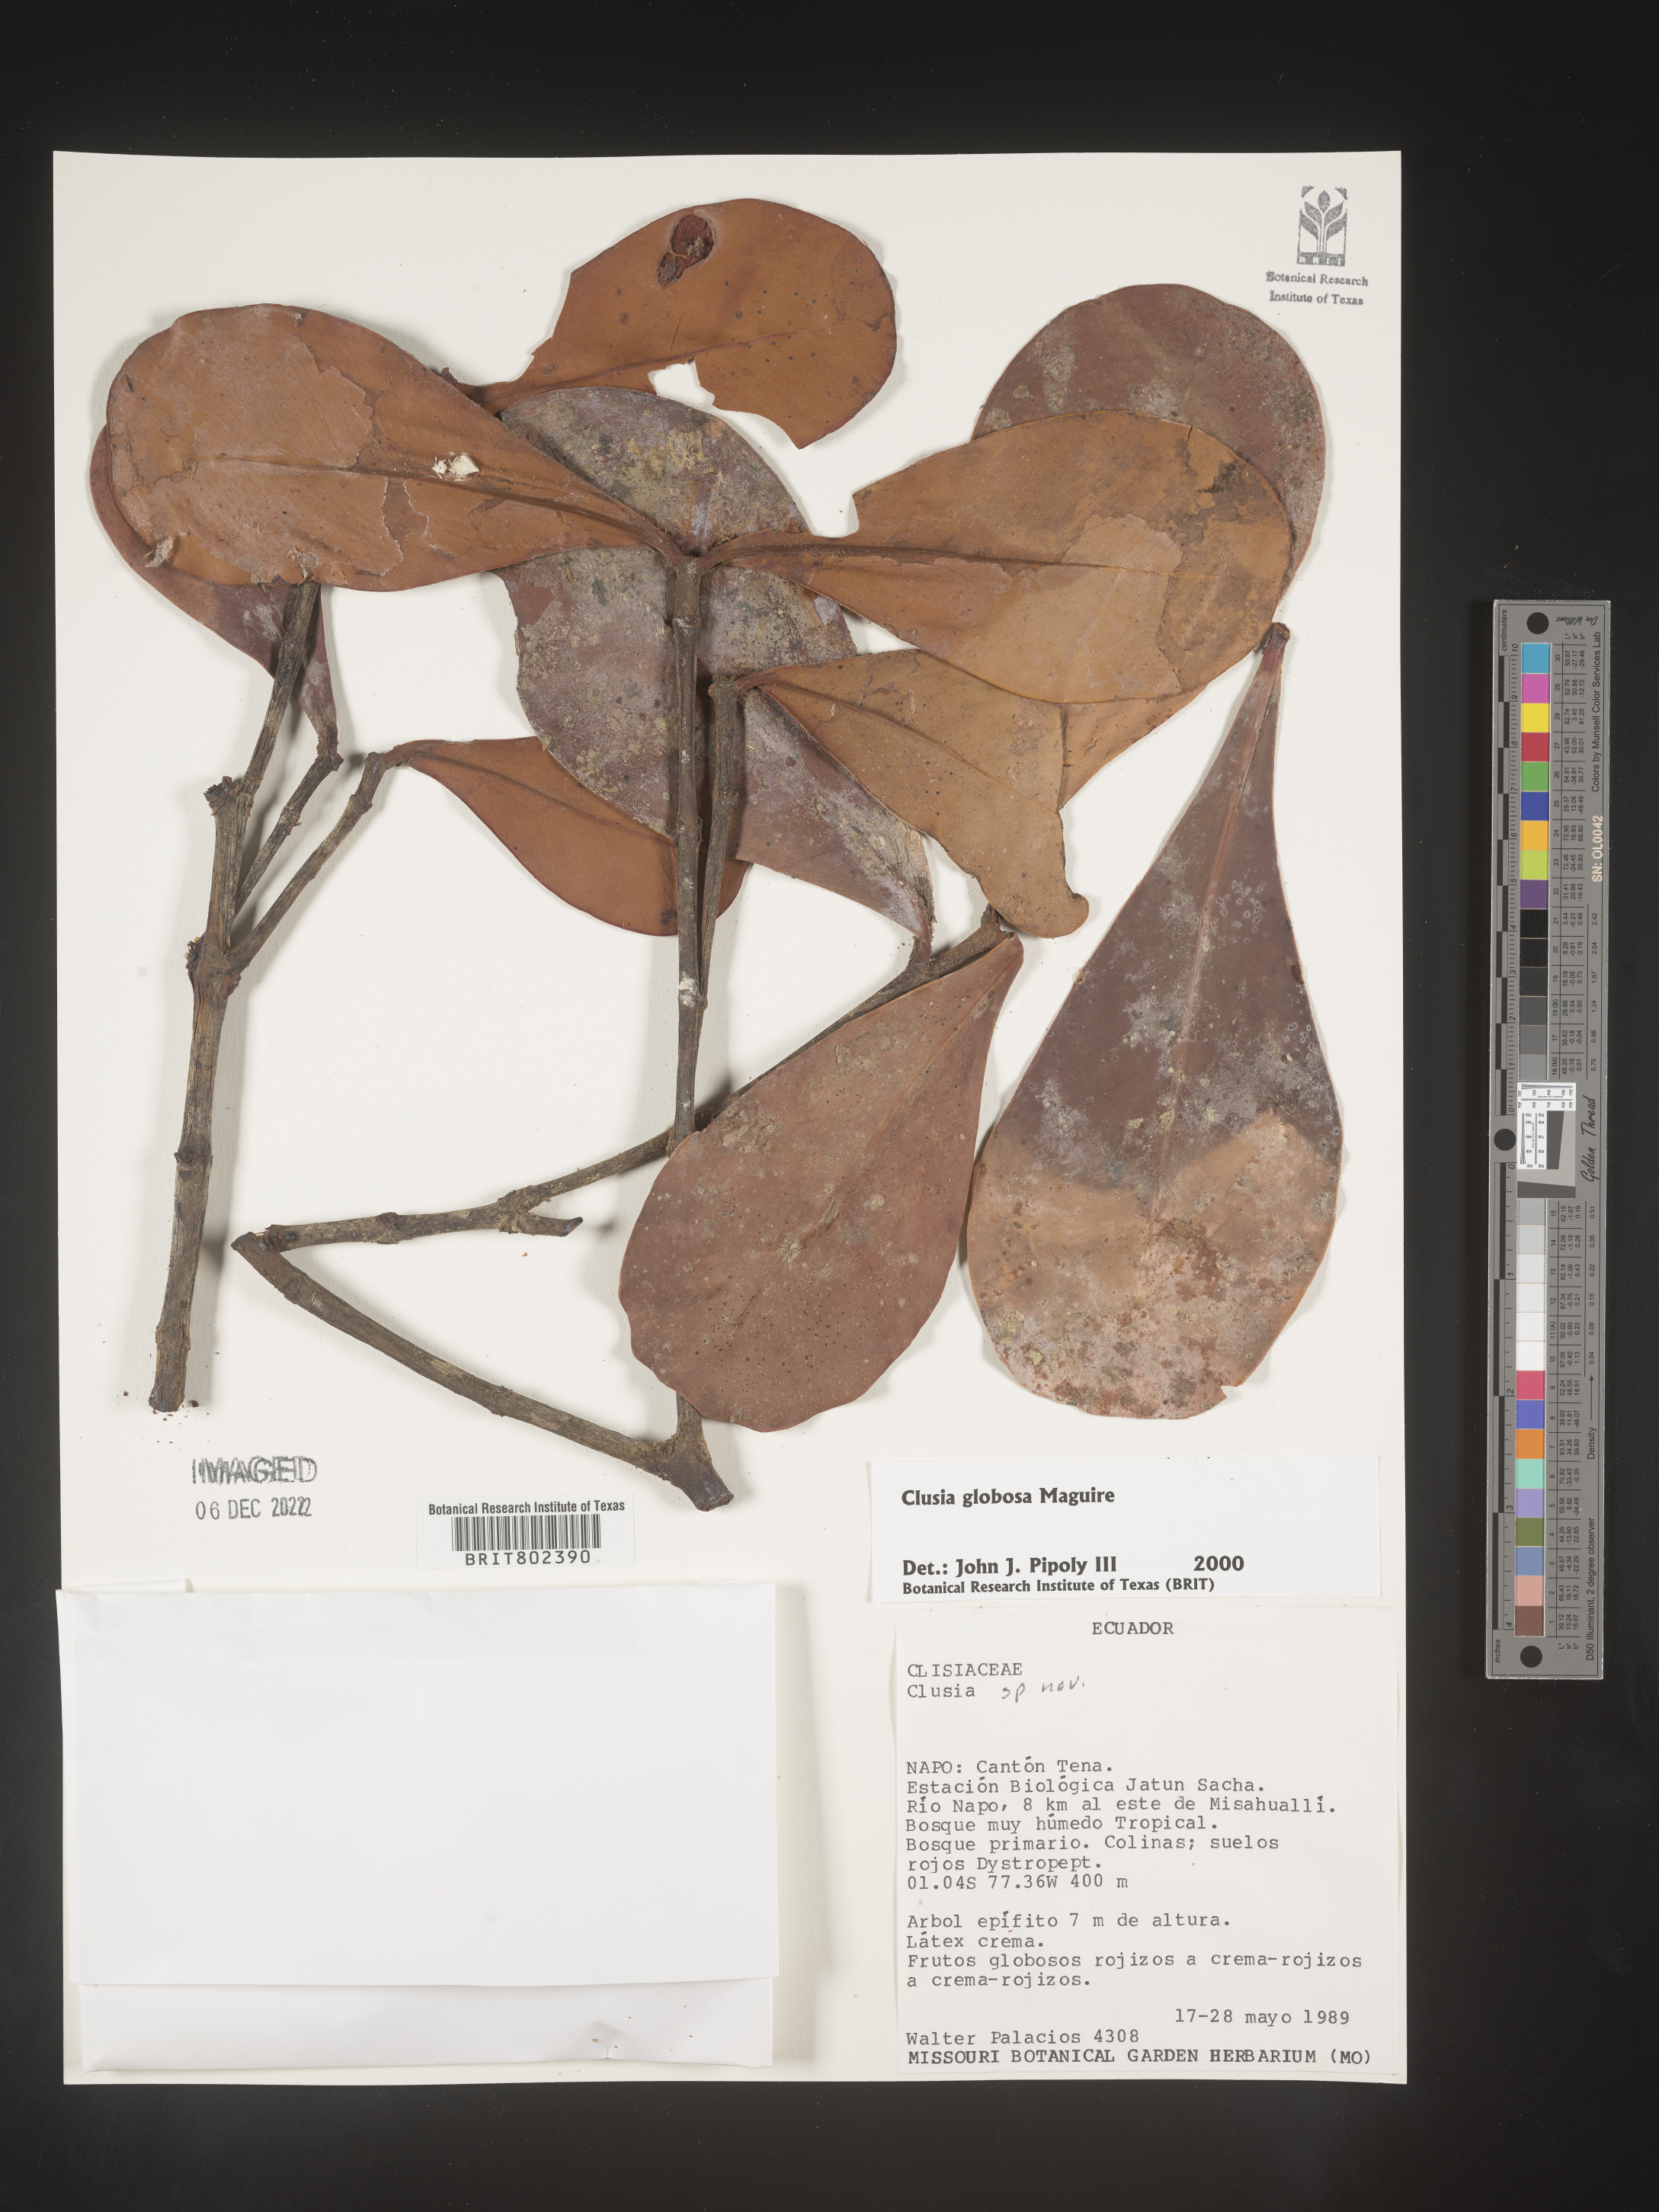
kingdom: Plantae
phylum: Tracheophyta
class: Magnoliopsida
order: Malpighiales
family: Clusiaceae
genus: Clusia
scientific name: Clusia
